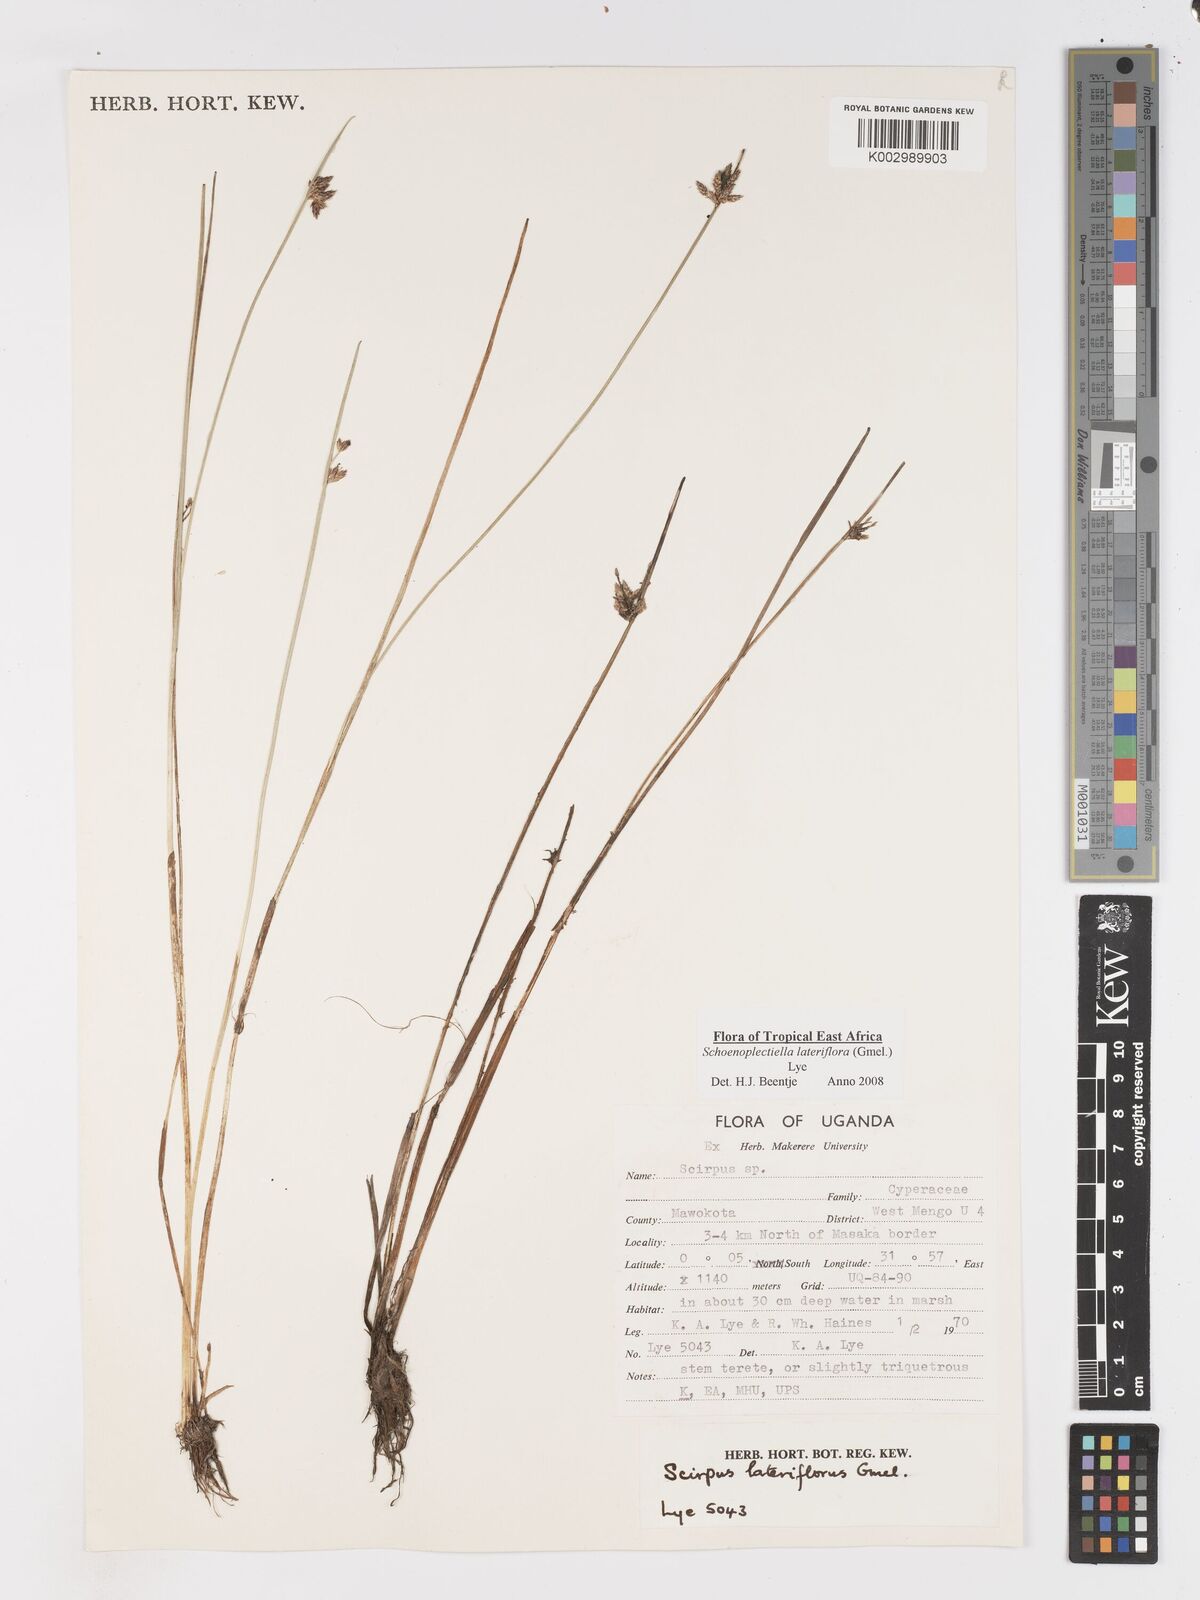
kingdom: Plantae
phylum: Tracheophyta
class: Liliopsida
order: Poales
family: Cyperaceae
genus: Schoenoplectiella
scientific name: Schoenoplectiella lateriflora
